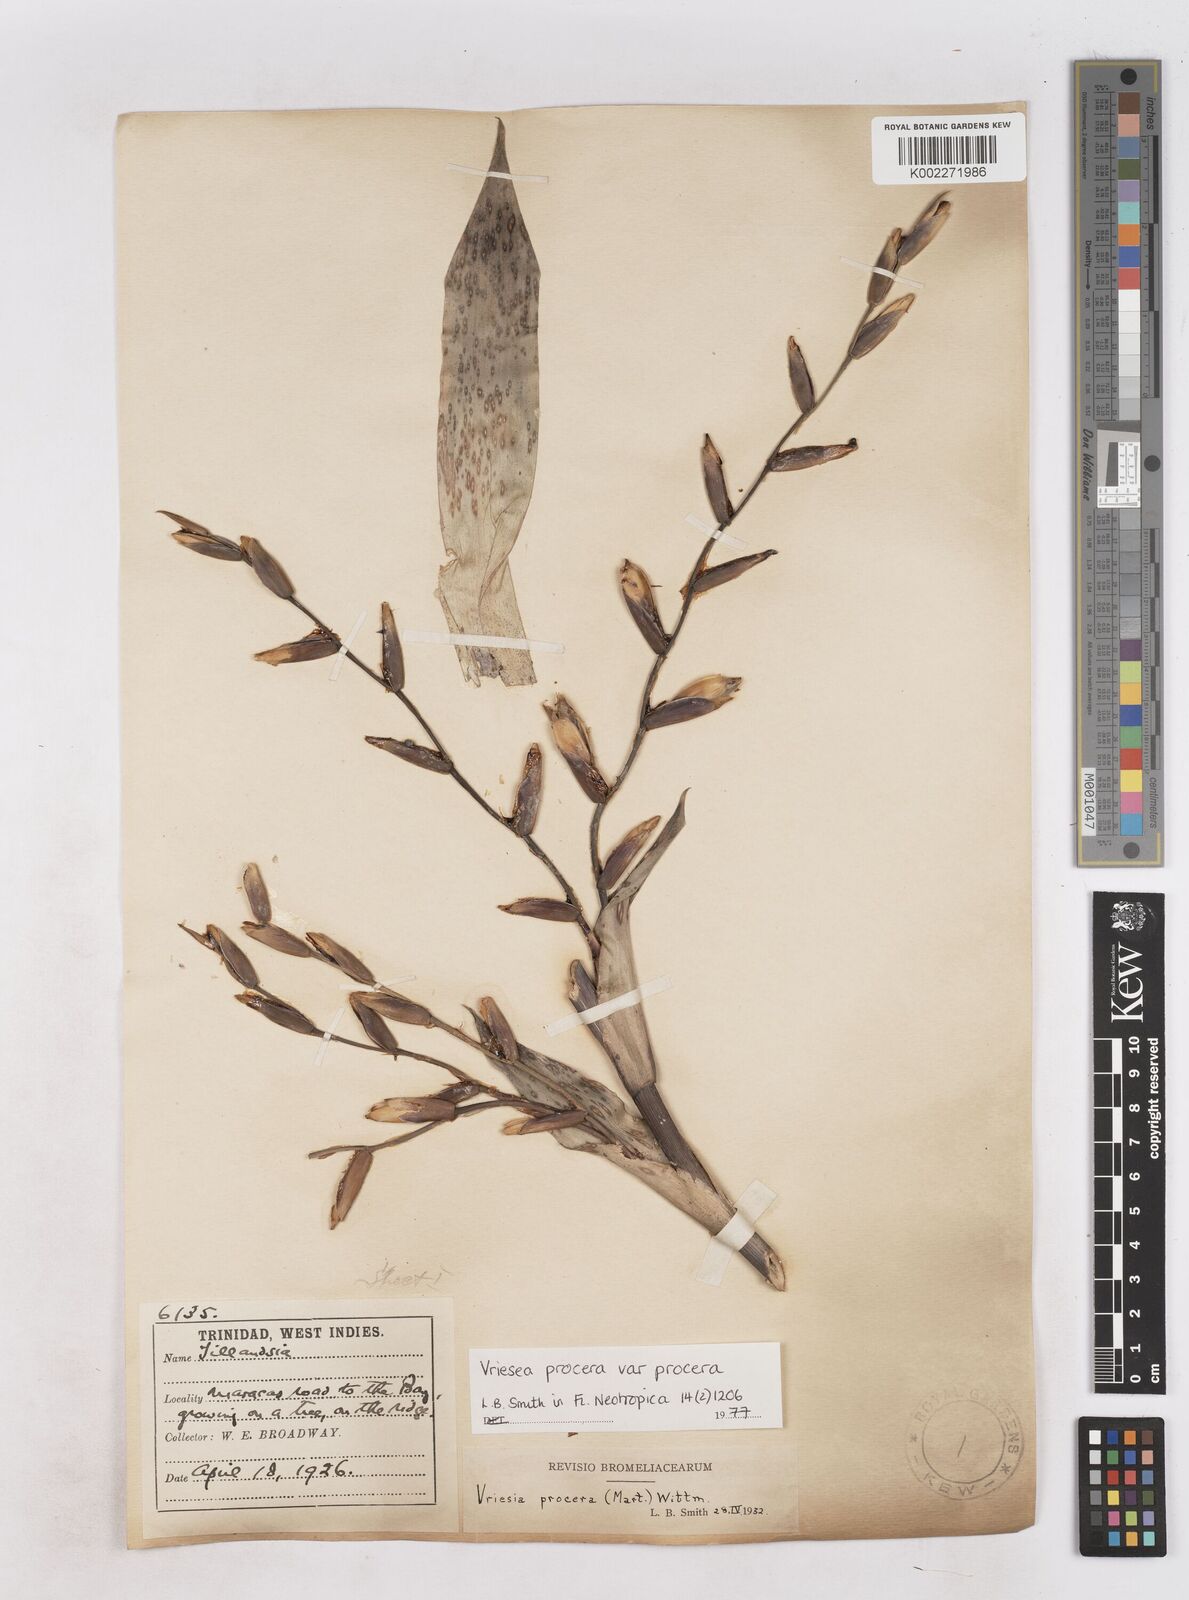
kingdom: Plantae
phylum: Tracheophyta
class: Liliopsida
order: Poales
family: Bromeliaceae
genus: Vriesea
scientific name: Vriesea procera
